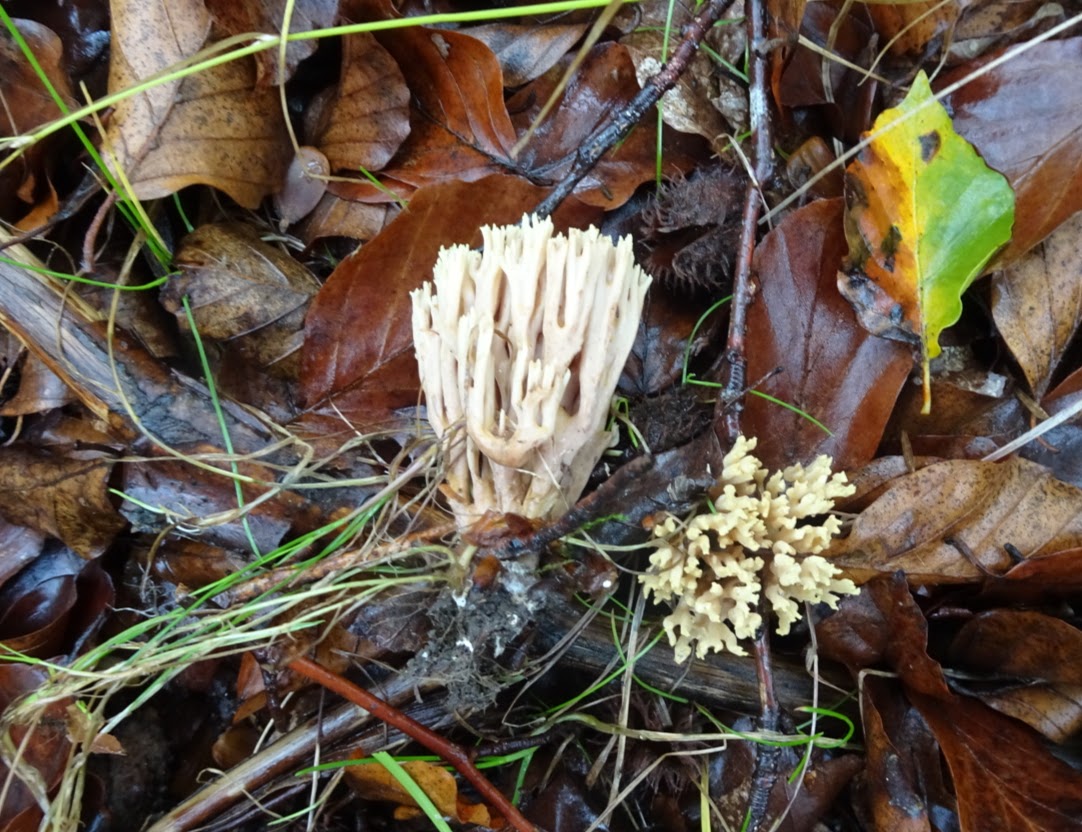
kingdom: Fungi
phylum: Basidiomycota
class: Agaricomycetes
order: Gomphales
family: Gomphaceae
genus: Ramaria
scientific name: Ramaria stricta
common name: rank koralsvamp
